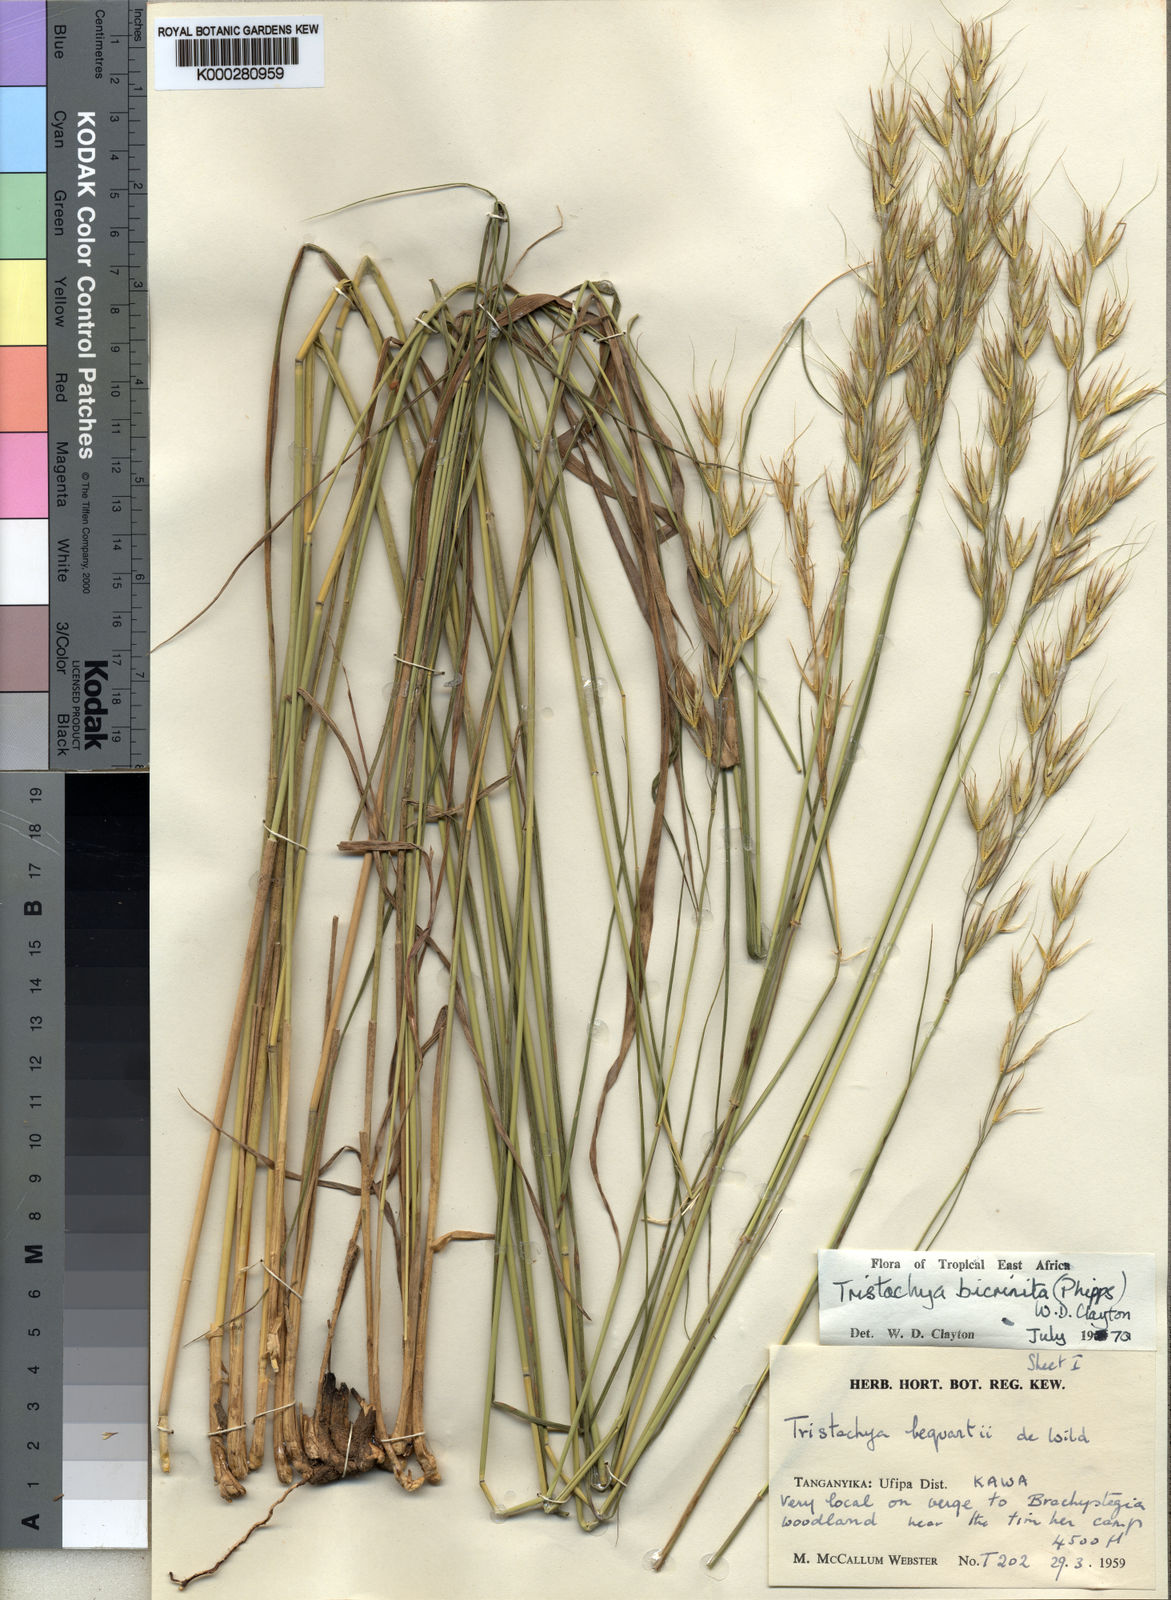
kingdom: Plantae
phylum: Tracheophyta
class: Liliopsida
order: Poales
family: Poaceae
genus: Tristachya
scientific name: Tristachya bicrinita
